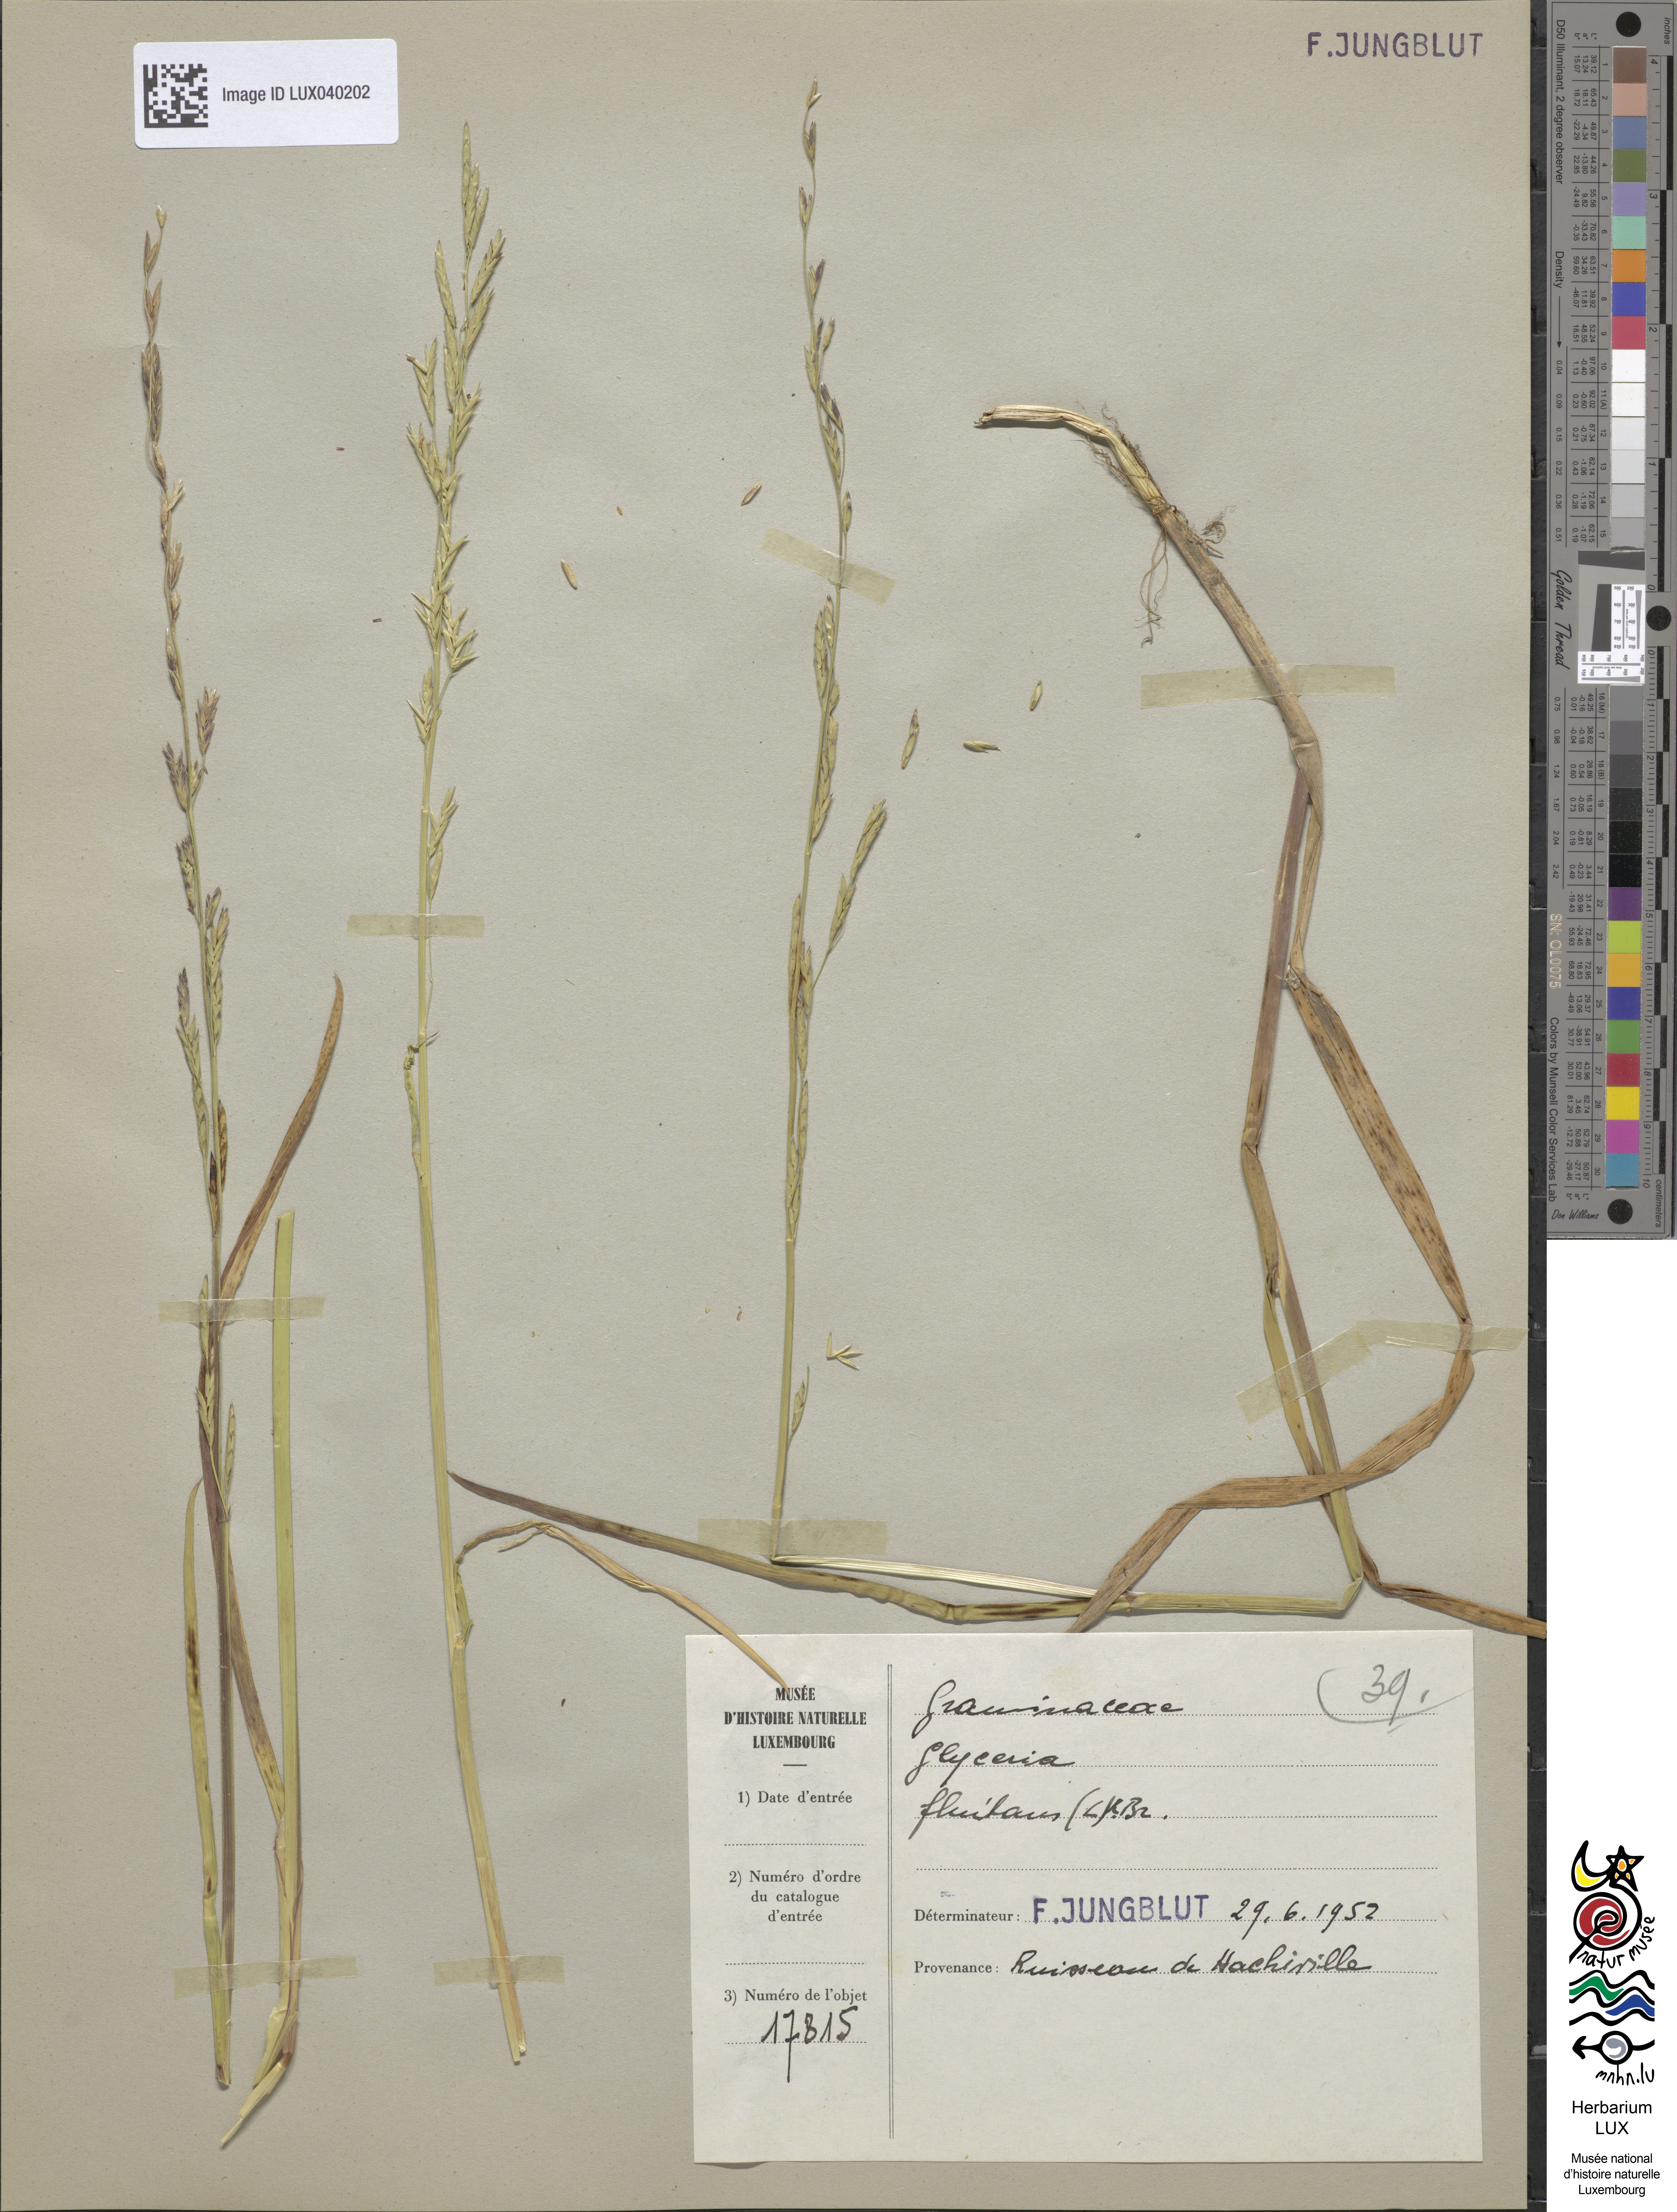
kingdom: Plantae
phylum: Tracheophyta
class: Liliopsida
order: Poales
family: Poaceae
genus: Glyceria
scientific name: Glyceria fluitans
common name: Floating sweet-grass
